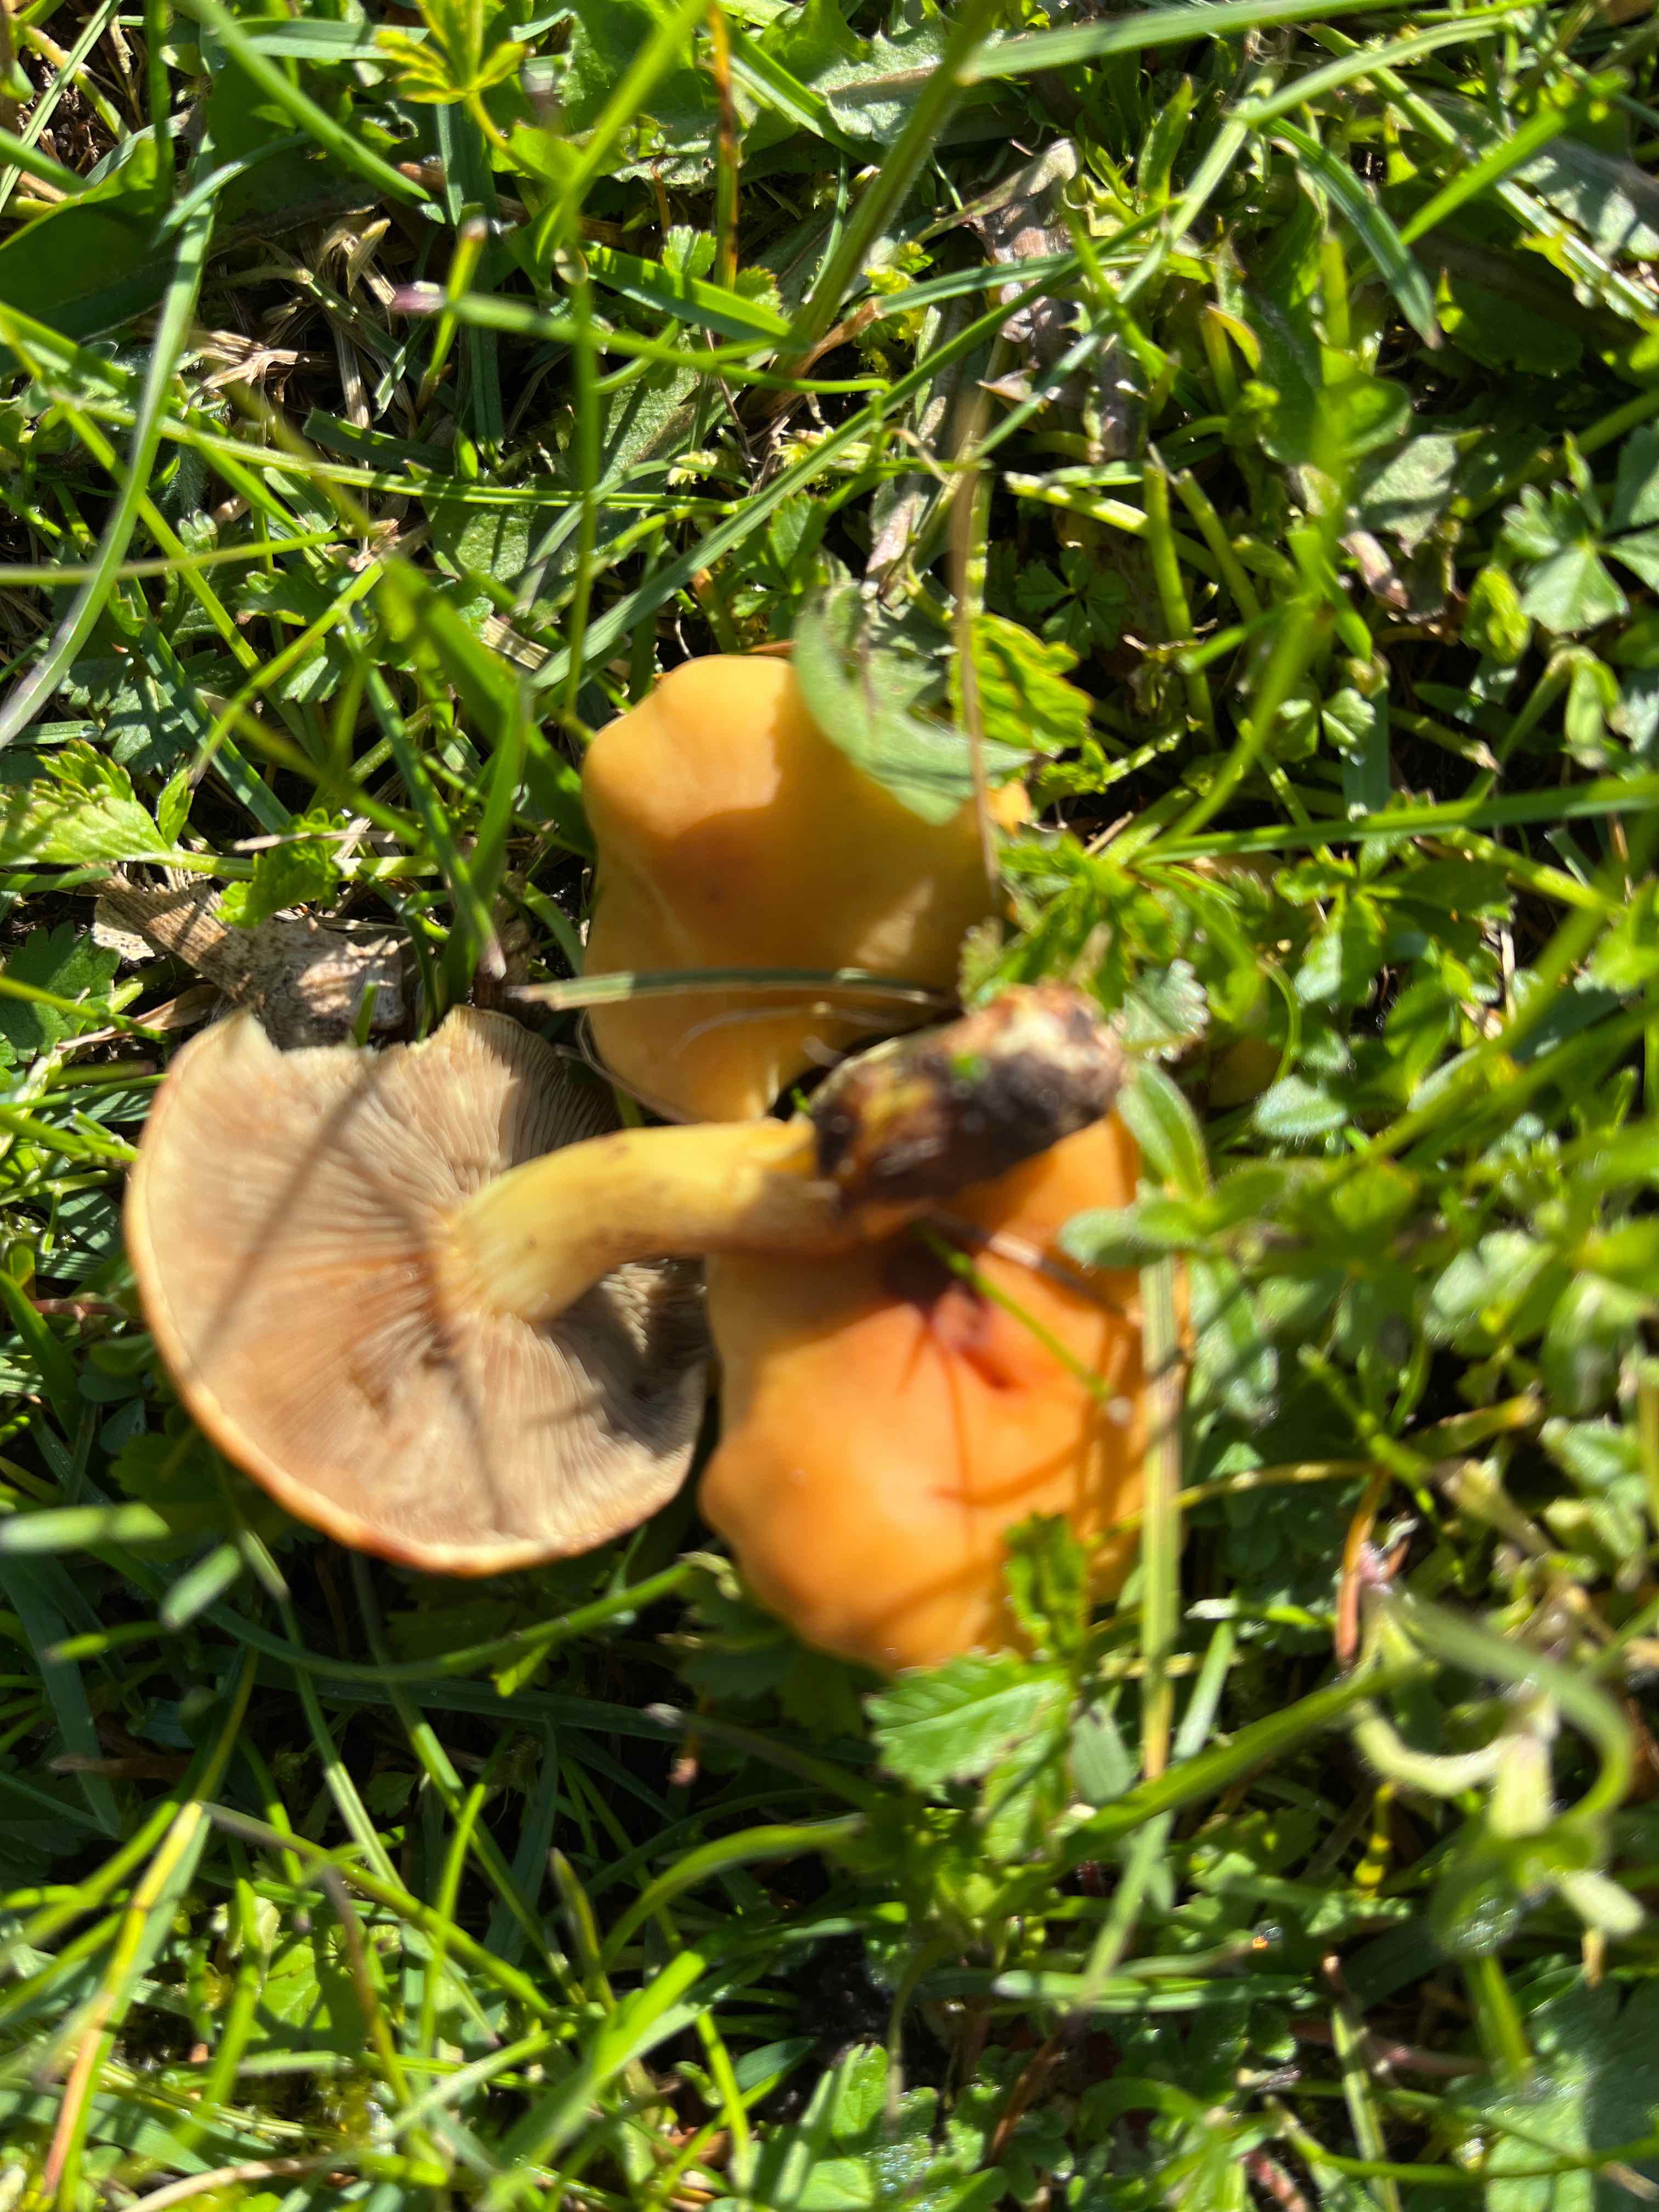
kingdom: Fungi
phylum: Basidiomycota
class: Agaricomycetes
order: Agaricales
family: Strophariaceae
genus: Hypholoma
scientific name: Hypholoma fasciculare
